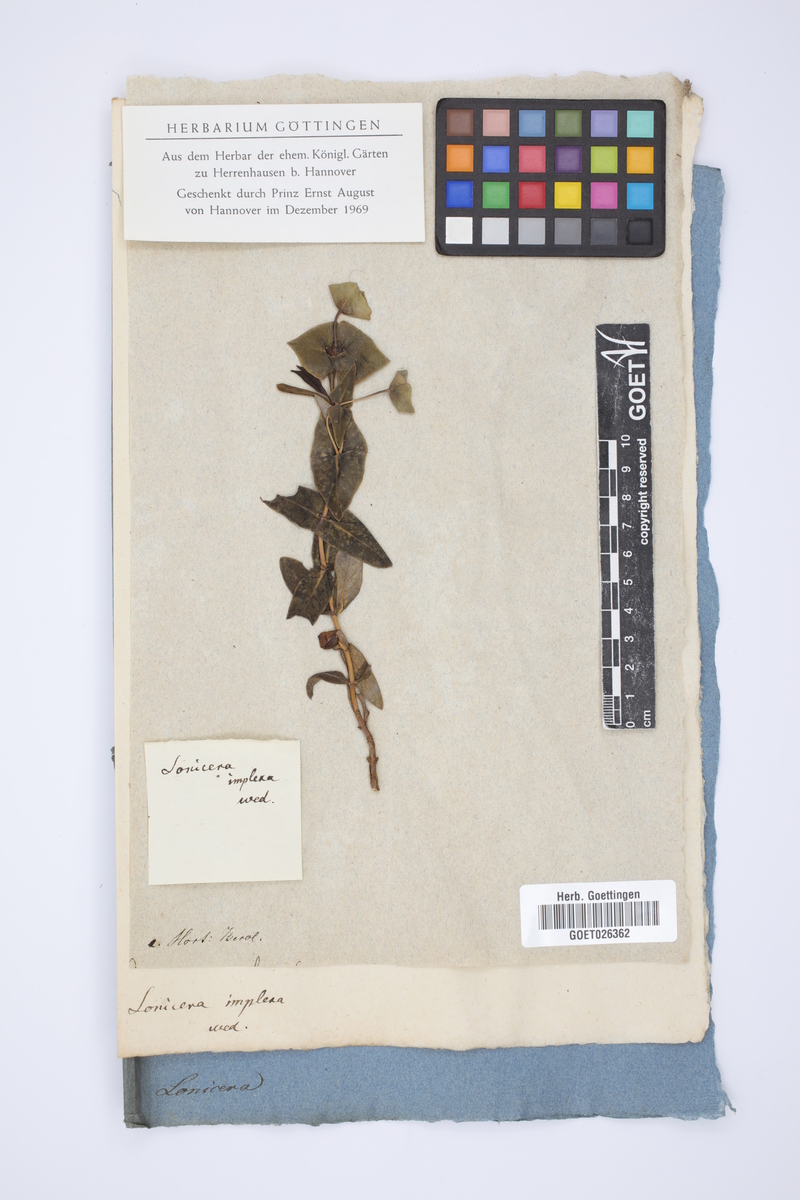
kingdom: Plantae
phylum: Tracheophyta
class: Magnoliopsida
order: Dipsacales
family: Caprifoliaceae
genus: Lonicera
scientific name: Lonicera implexa
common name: Minorca honeysuckle
